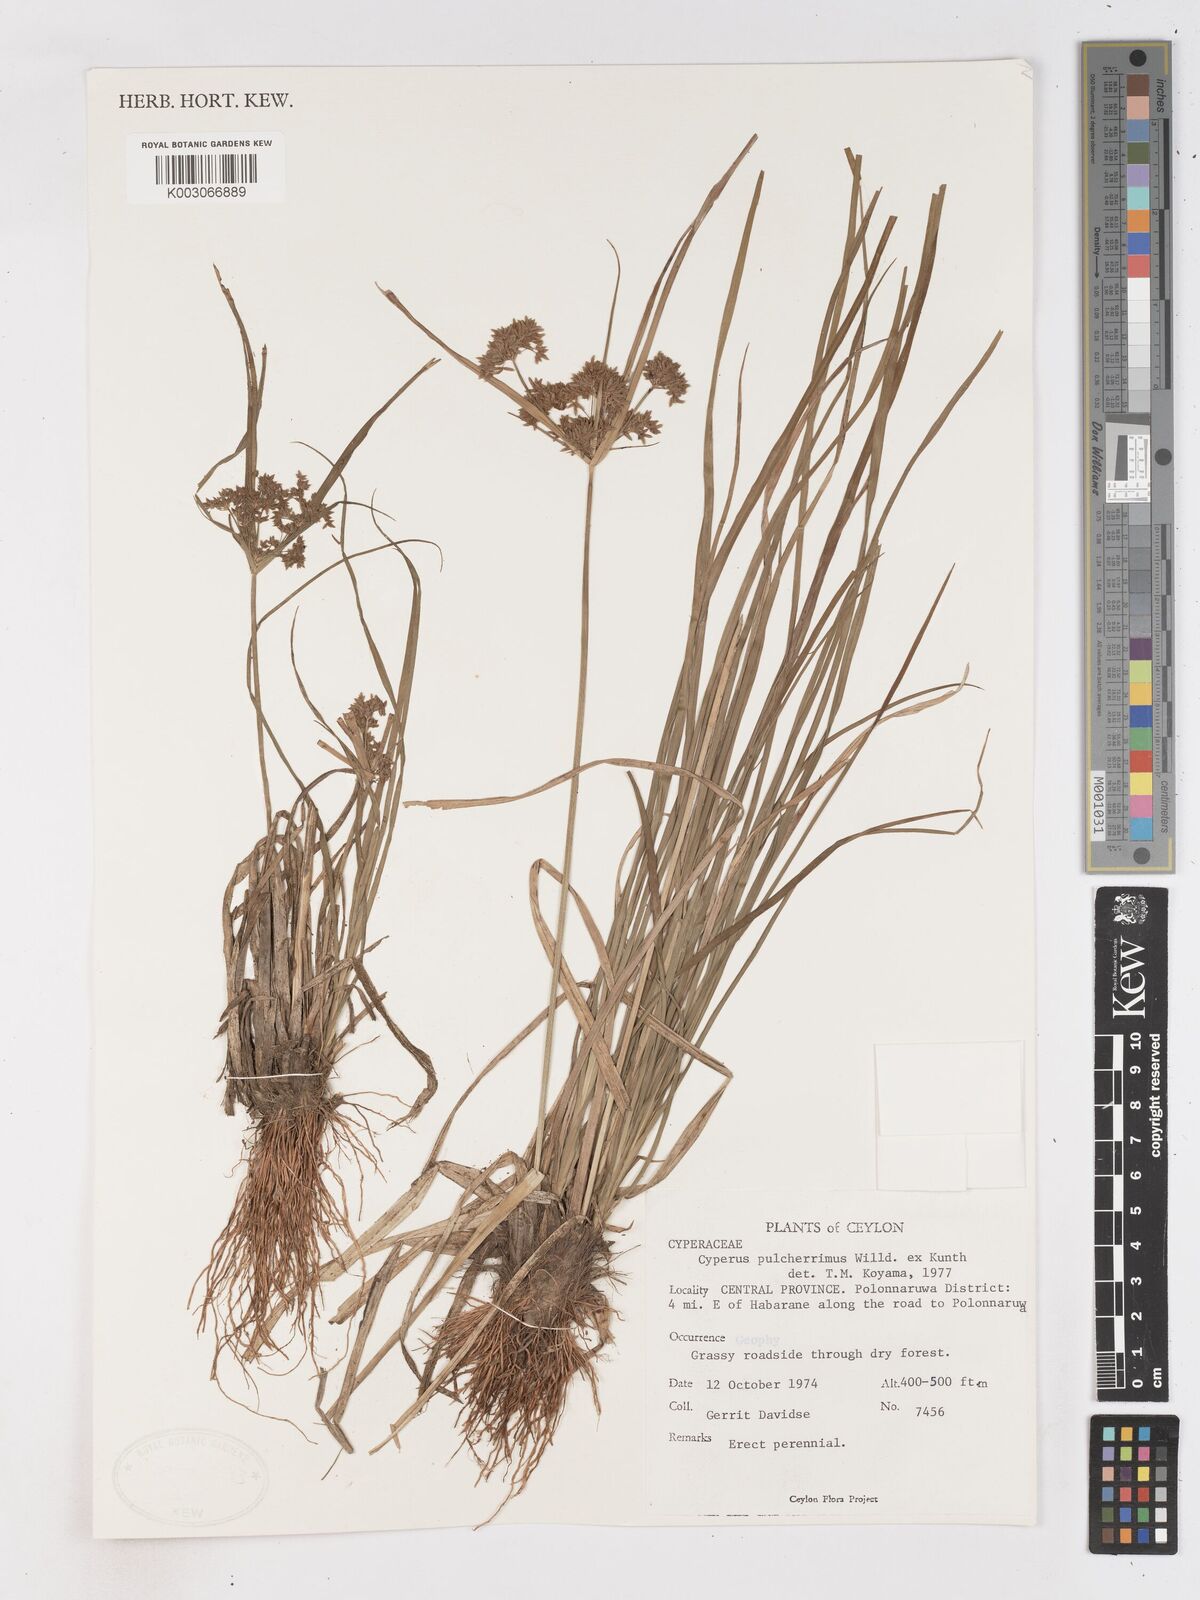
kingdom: Plantae
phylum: Tracheophyta
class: Liliopsida
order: Poales
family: Cyperaceae
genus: Cyperus
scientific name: Cyperus pulcherrimus
